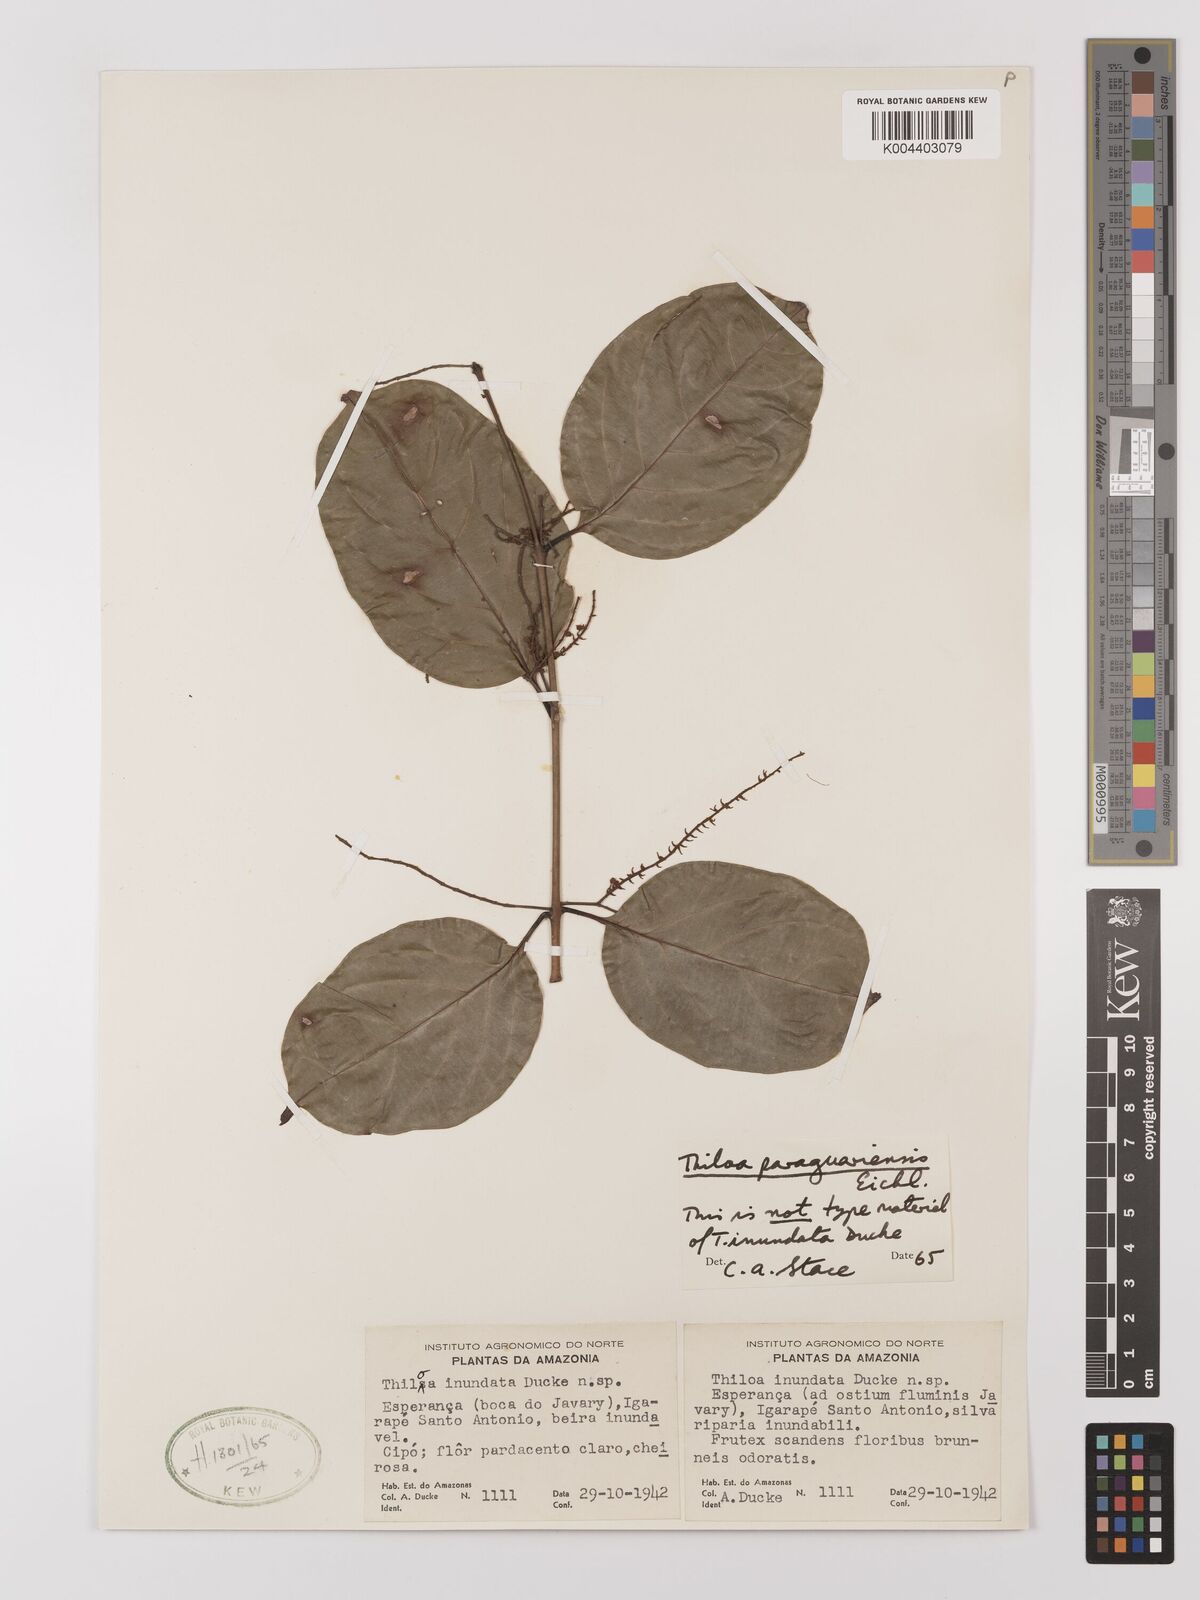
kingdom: Plantae
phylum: Tracheophyta
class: Magnoliopsida
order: Myrtales
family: Combretaceae
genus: Combretum
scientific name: Combretum paraguariense
